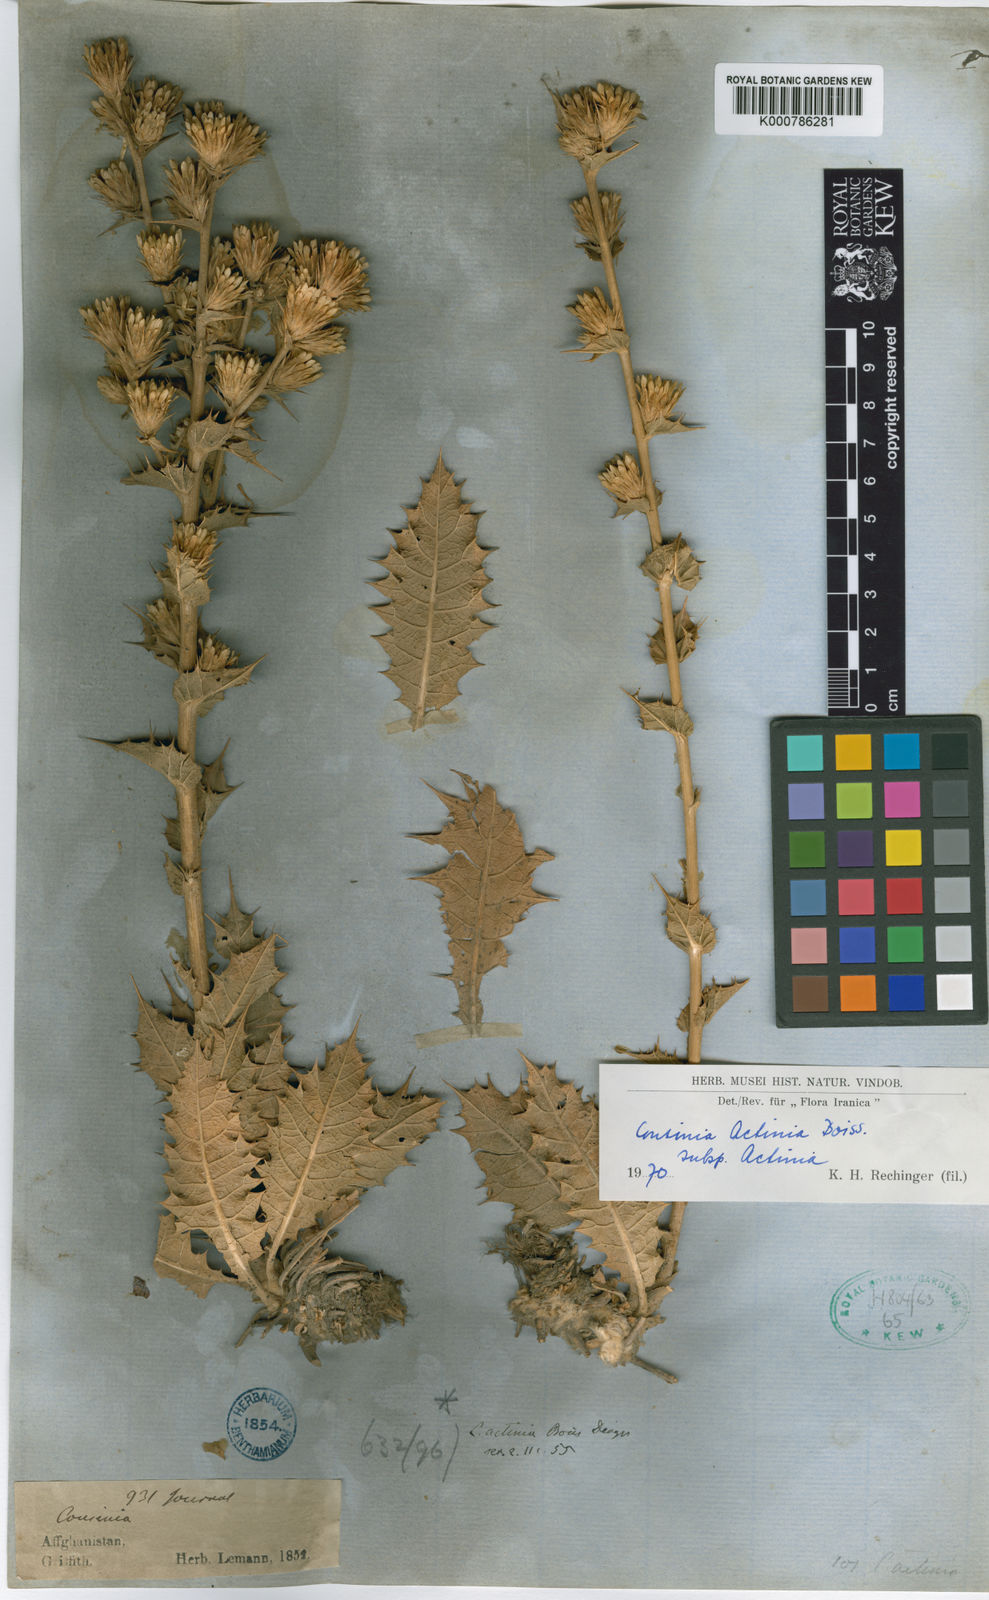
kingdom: Plantae
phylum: Tracheophyta
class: Magnoliopsida
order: Asterales
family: Asteraceae
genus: Cousinia
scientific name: Cousinia actinia
